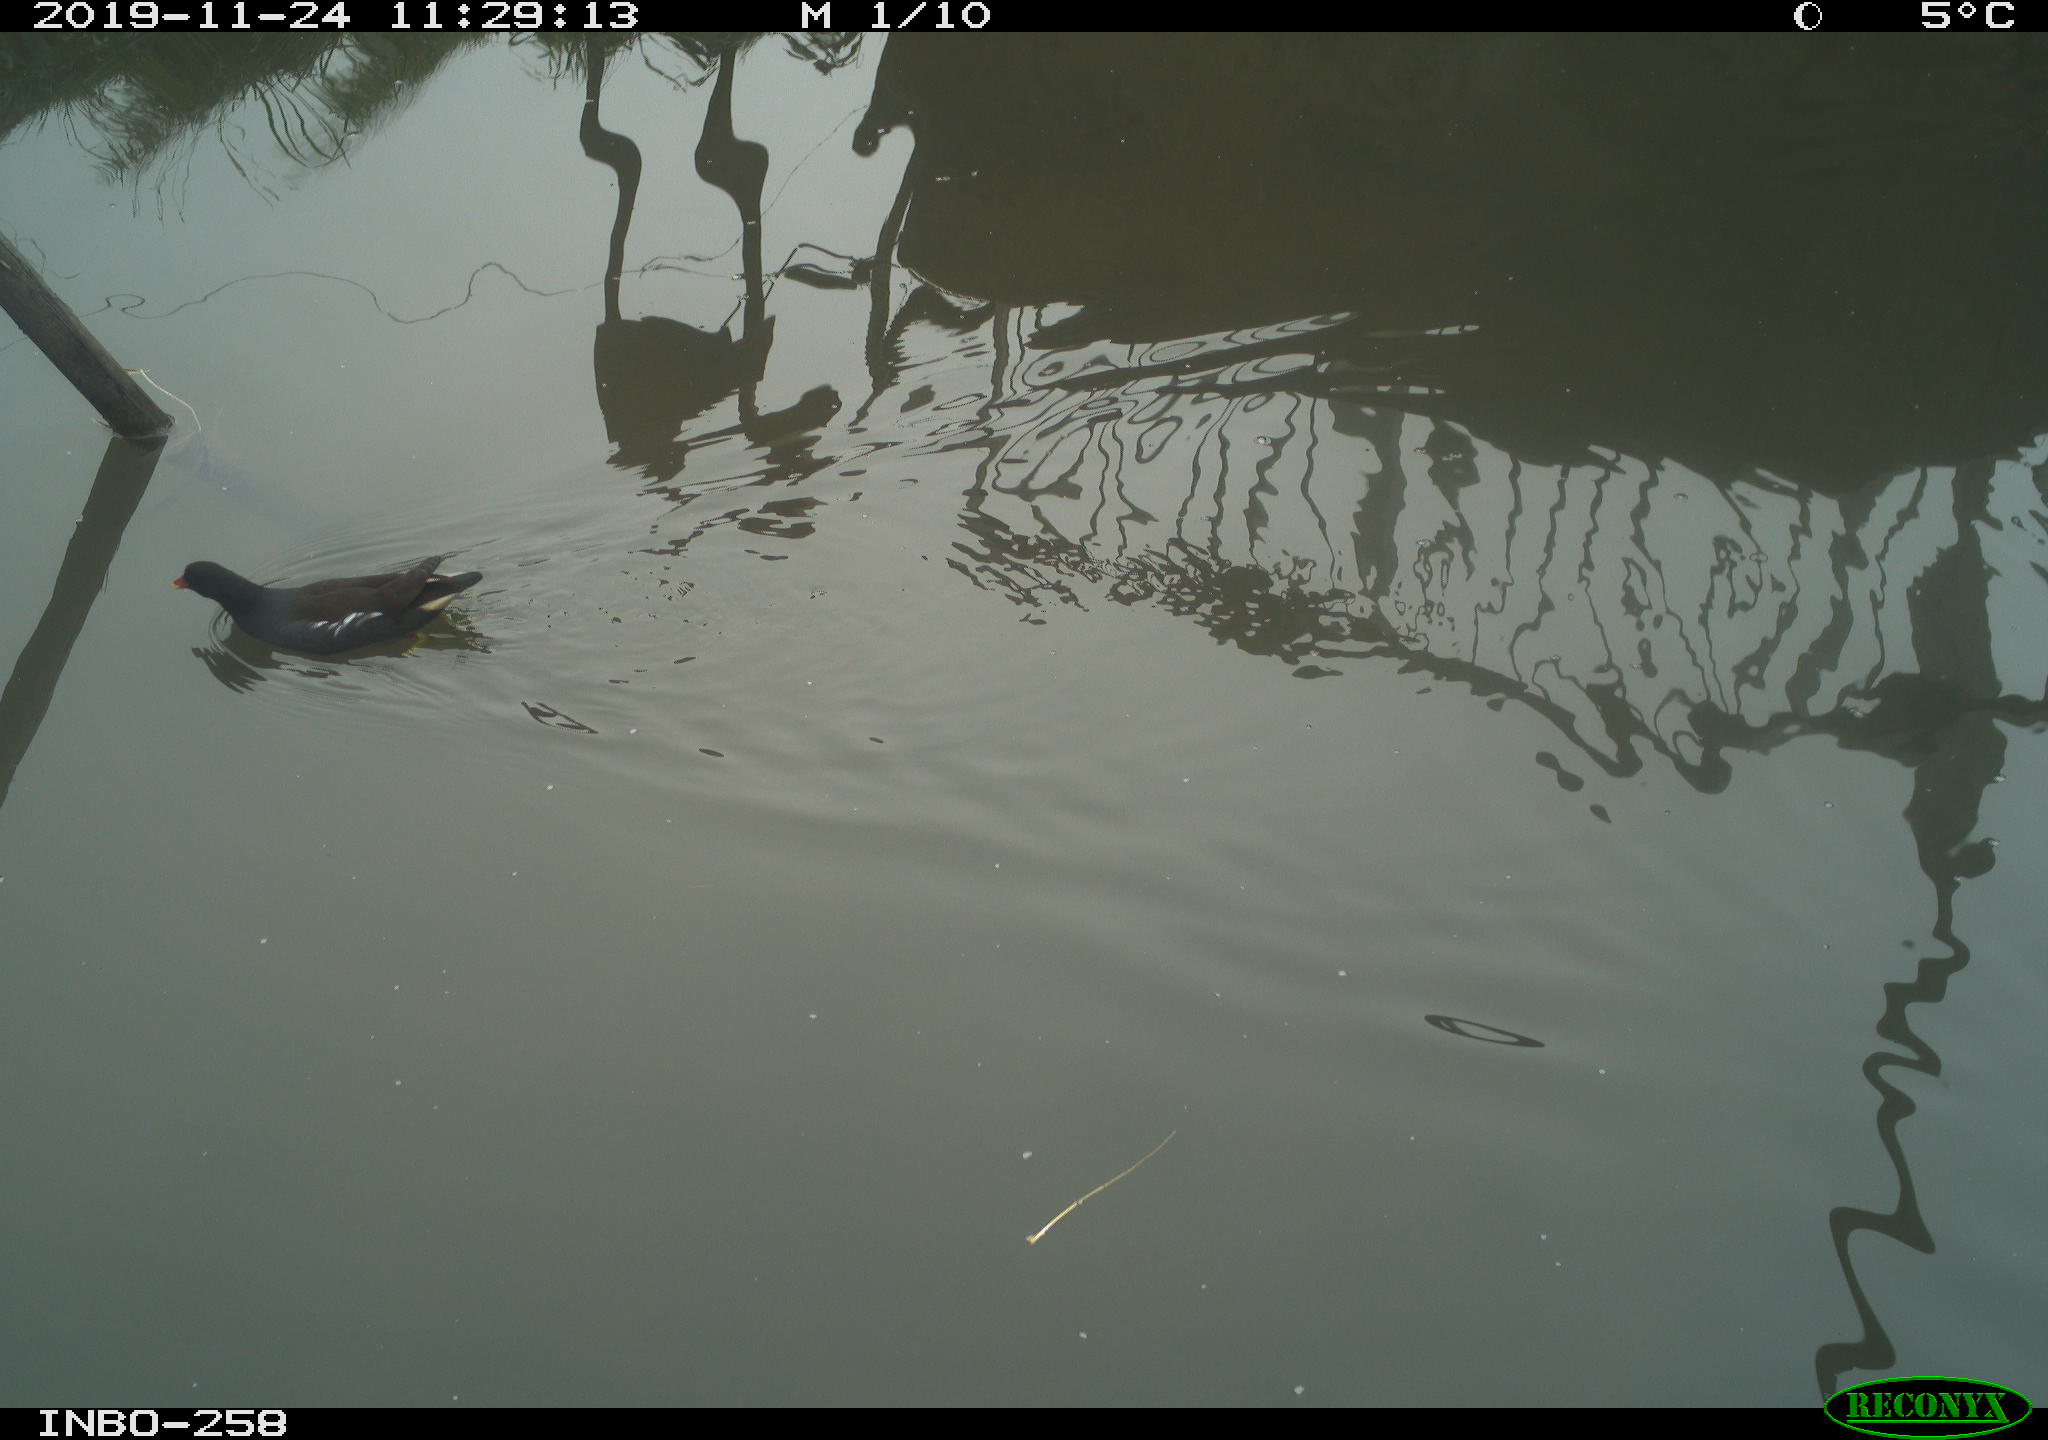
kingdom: Animalia
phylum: Chordata
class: Aves
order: Gruiformes
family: Rallidae
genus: Gallinula
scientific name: Gallinula chloropus
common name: Common moorhen
